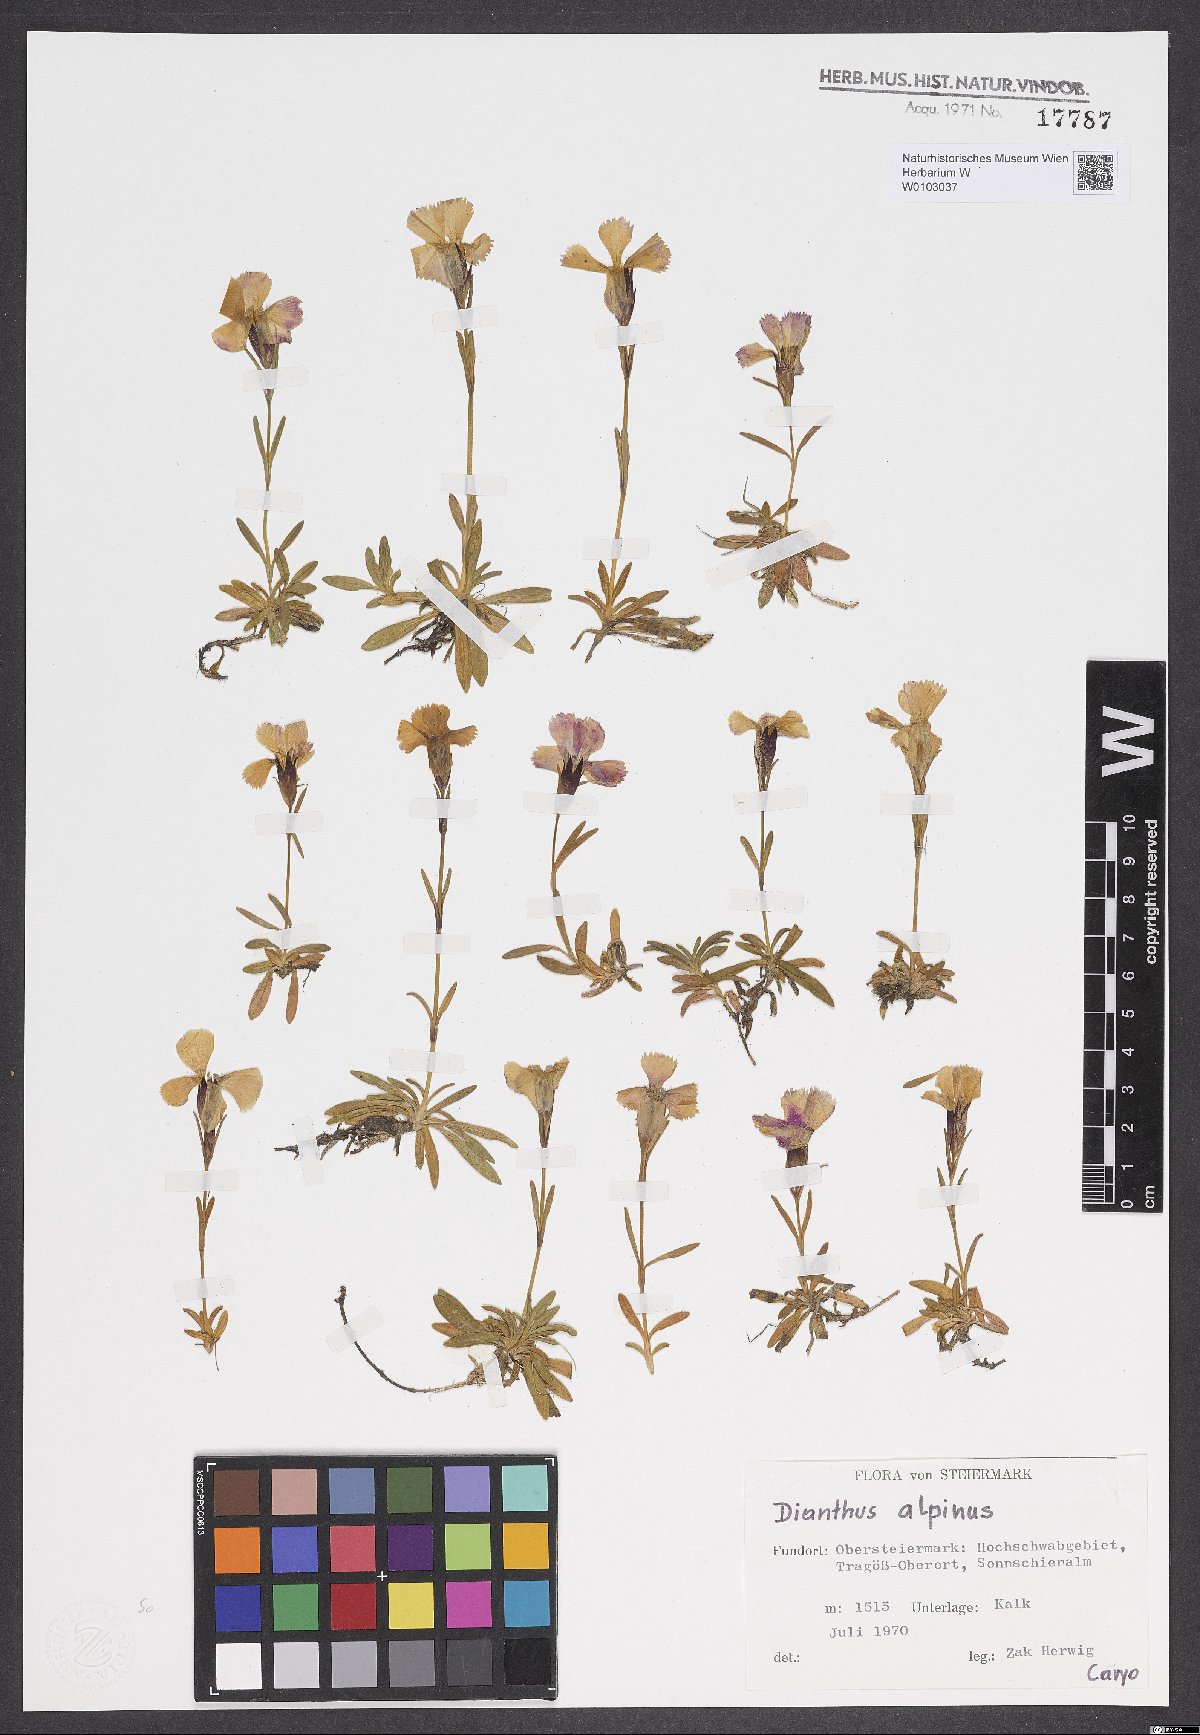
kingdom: Plantae
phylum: Tracheophyta
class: Magnoliopsida
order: Caryophyllales
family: Caryophyllaceae
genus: Dianthus
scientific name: Dianthus alpinus
